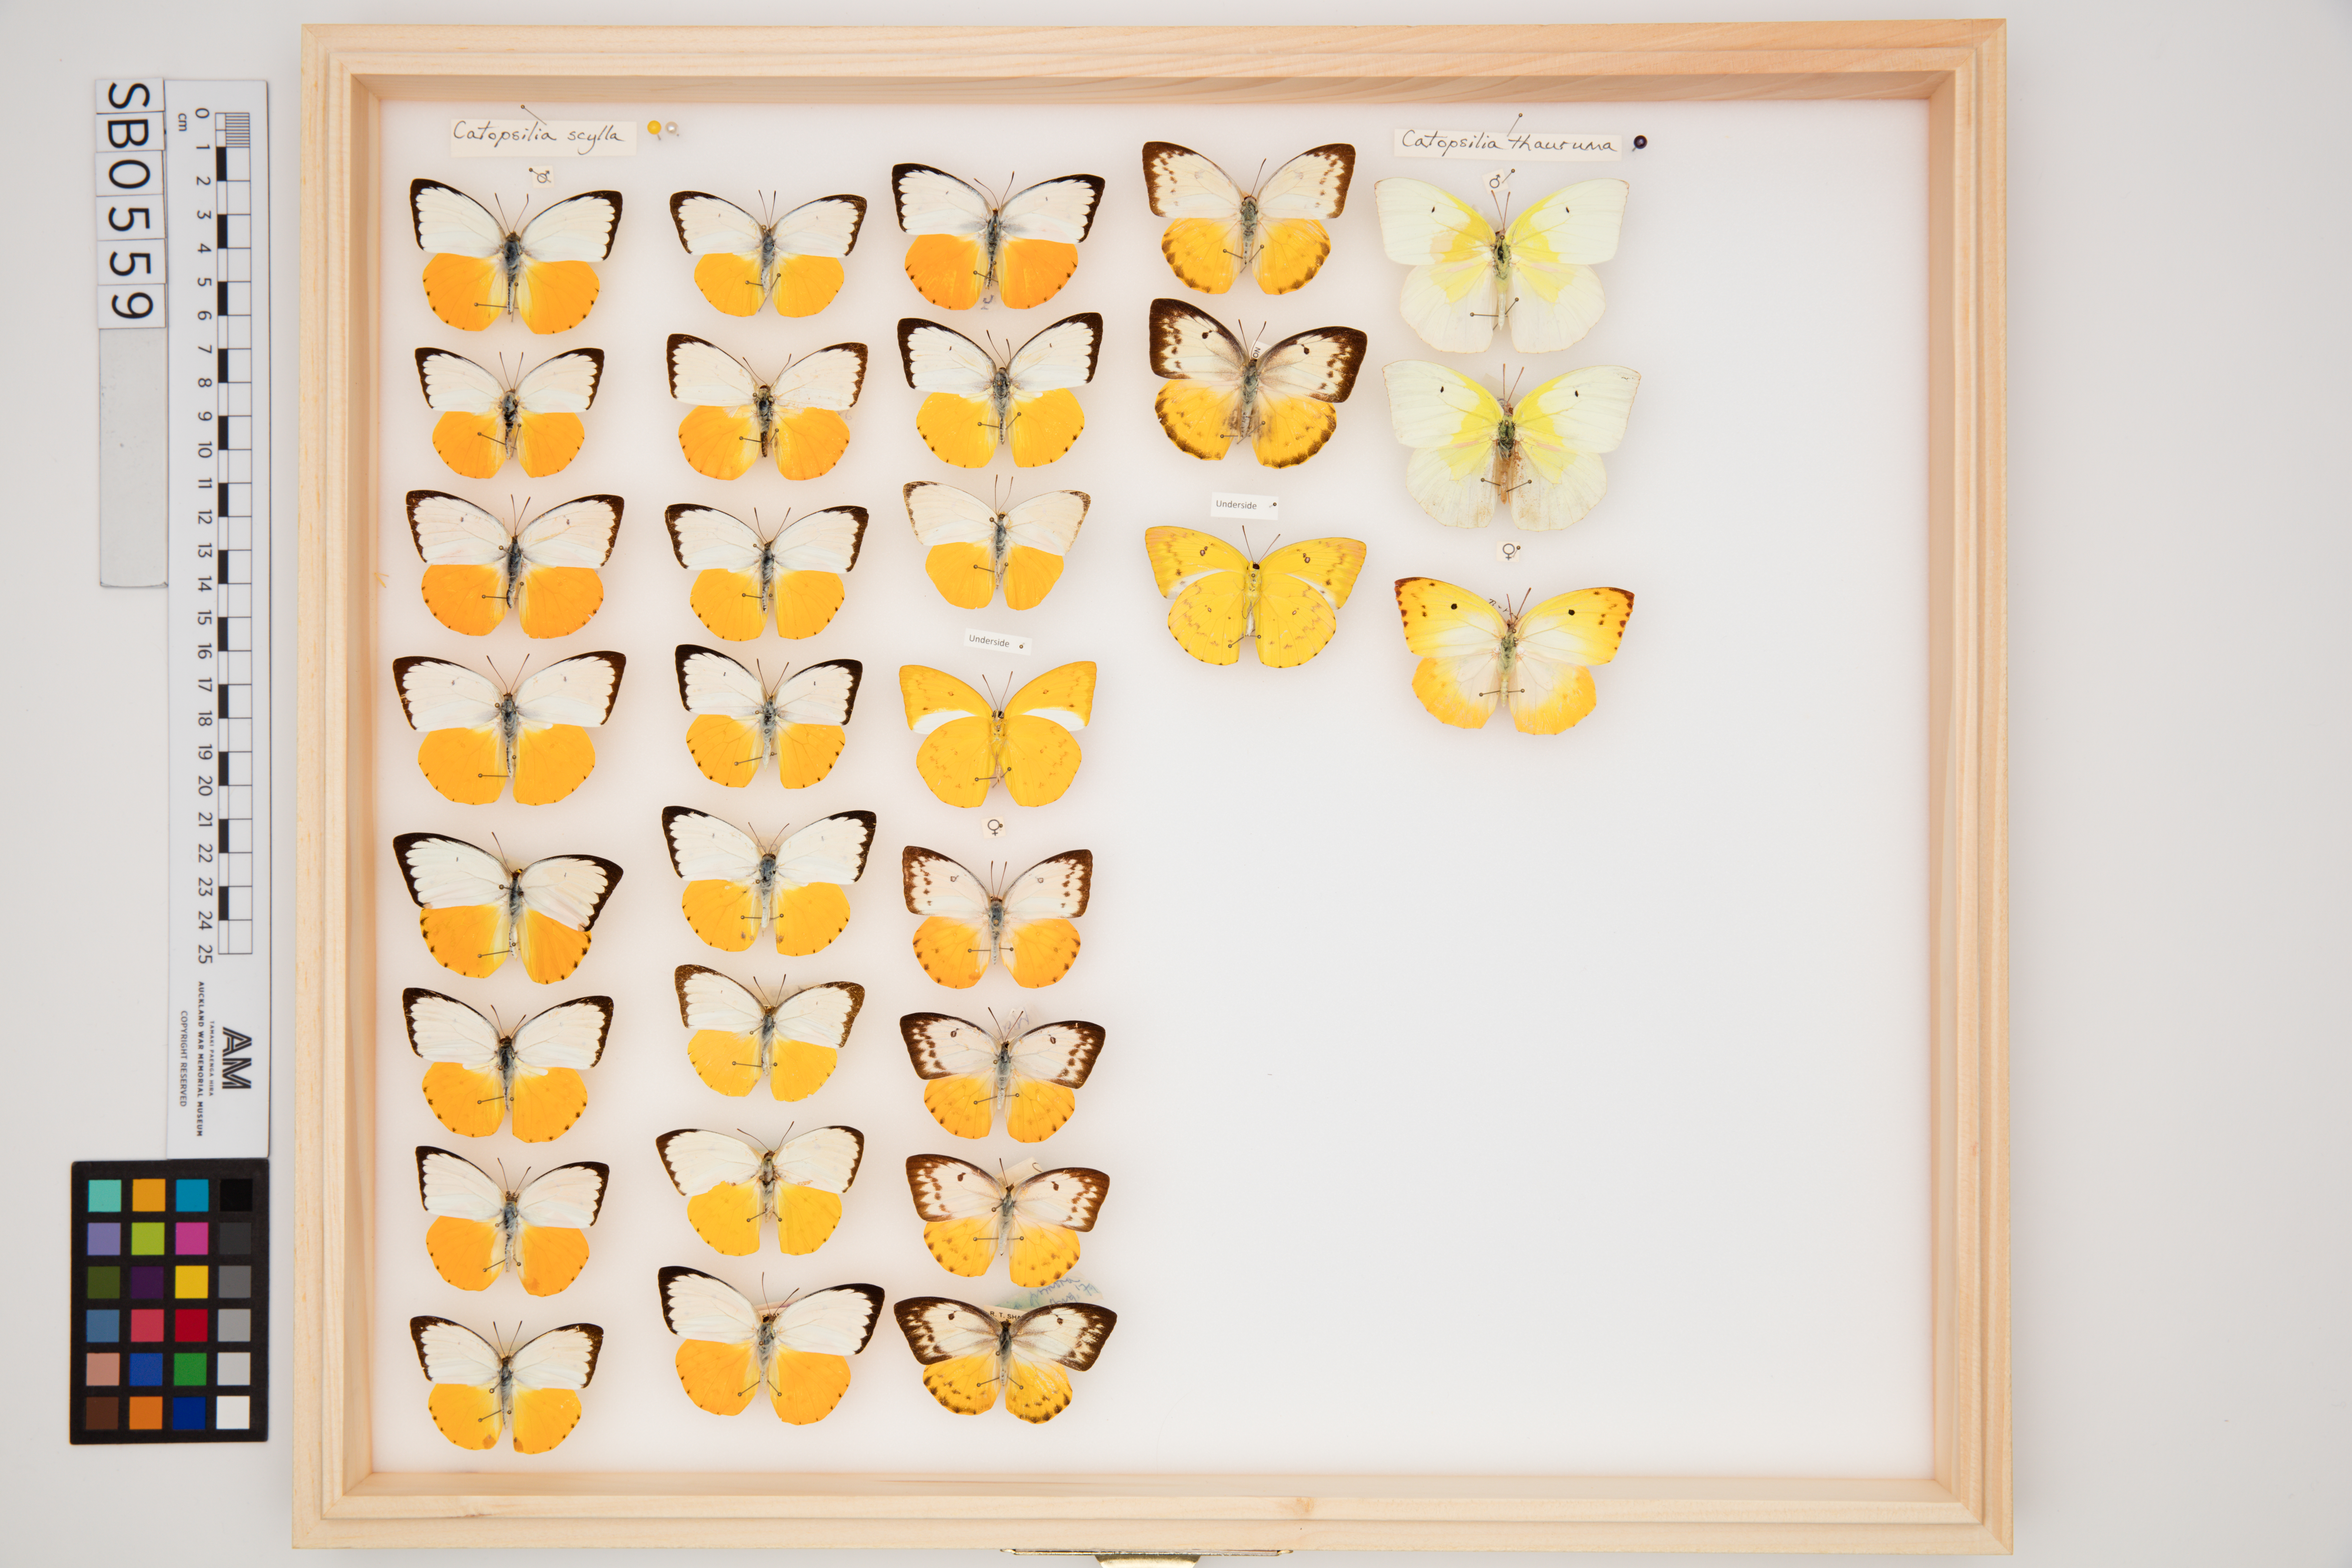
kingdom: Animalia
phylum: Arthropoda
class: Insecta
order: Lepidoptera
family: Pieridae
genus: Catopsilia
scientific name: Catopsilia scylla
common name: Orange emigrant
